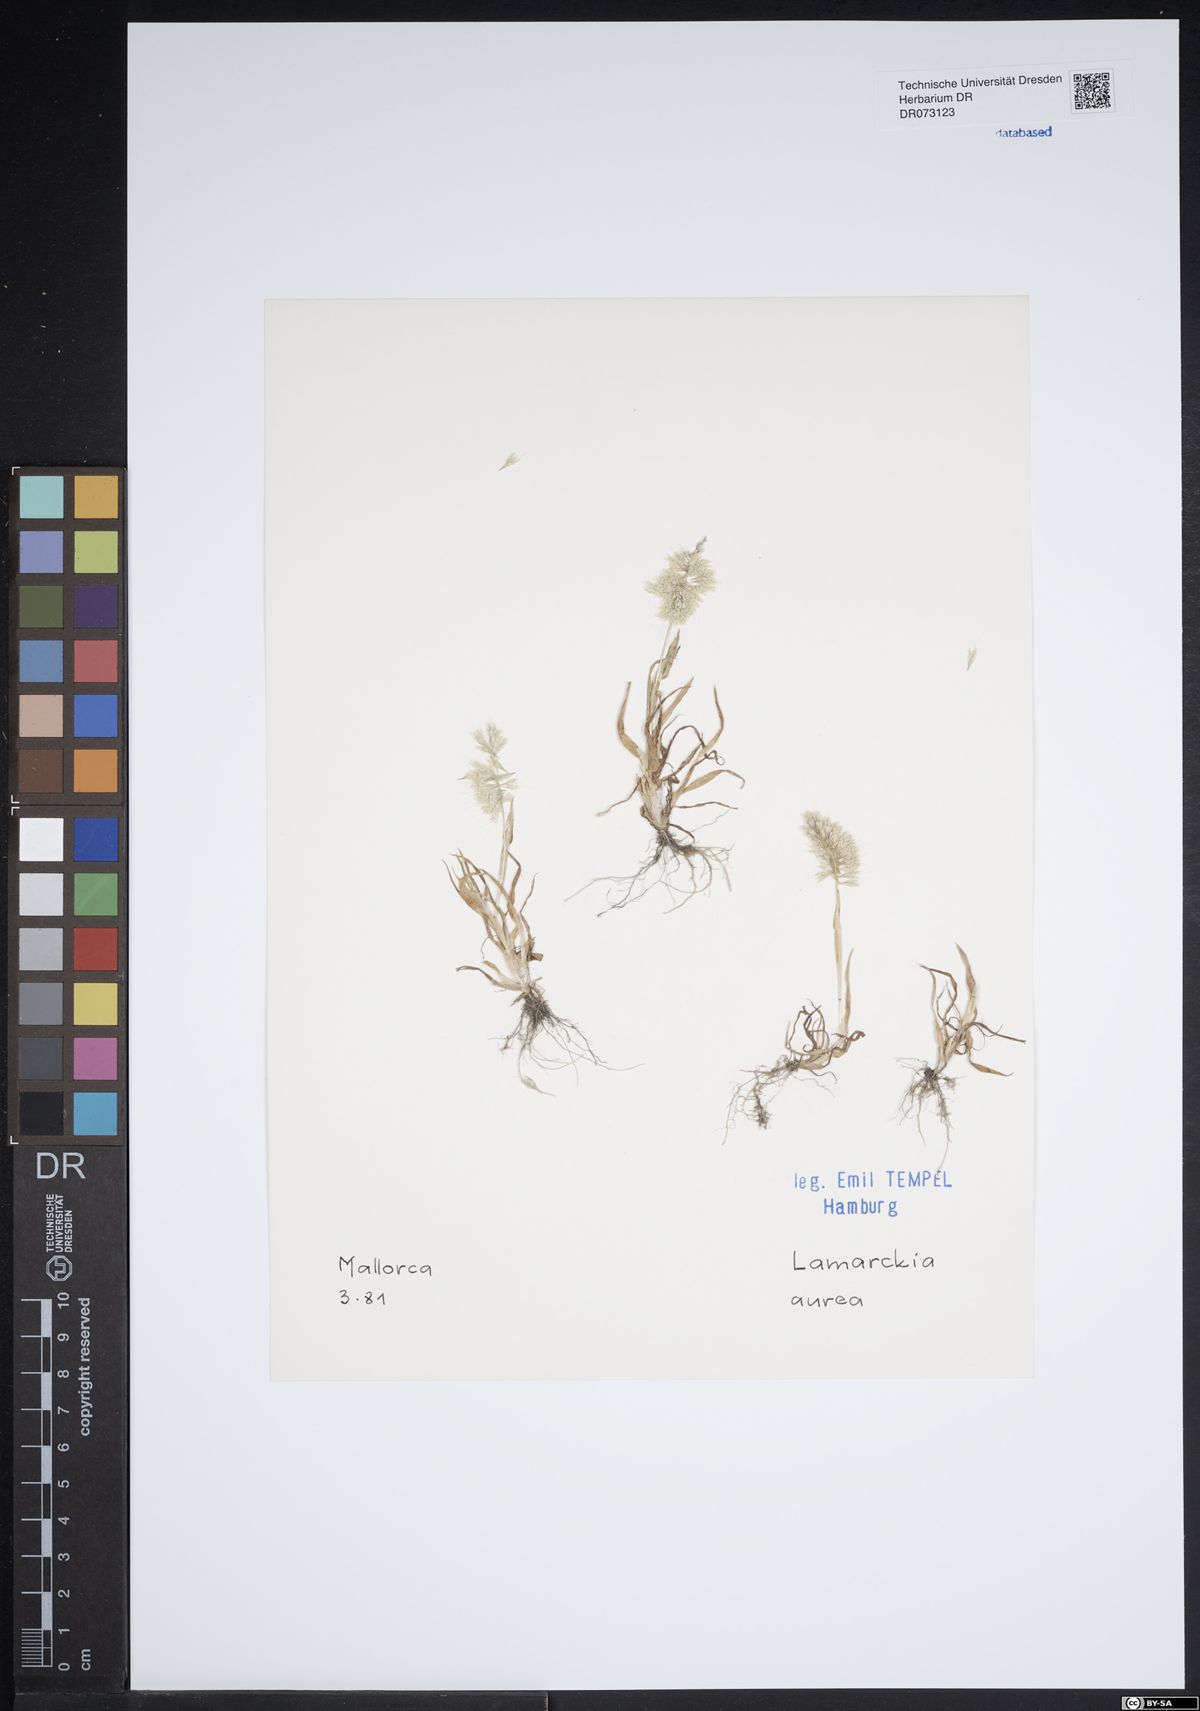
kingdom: Plantae
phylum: Tracheophyta
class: Liliopsida
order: Poales
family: Poaceae
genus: Lamarckia
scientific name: Lamarckia aurea
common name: Golden dog's-tail
